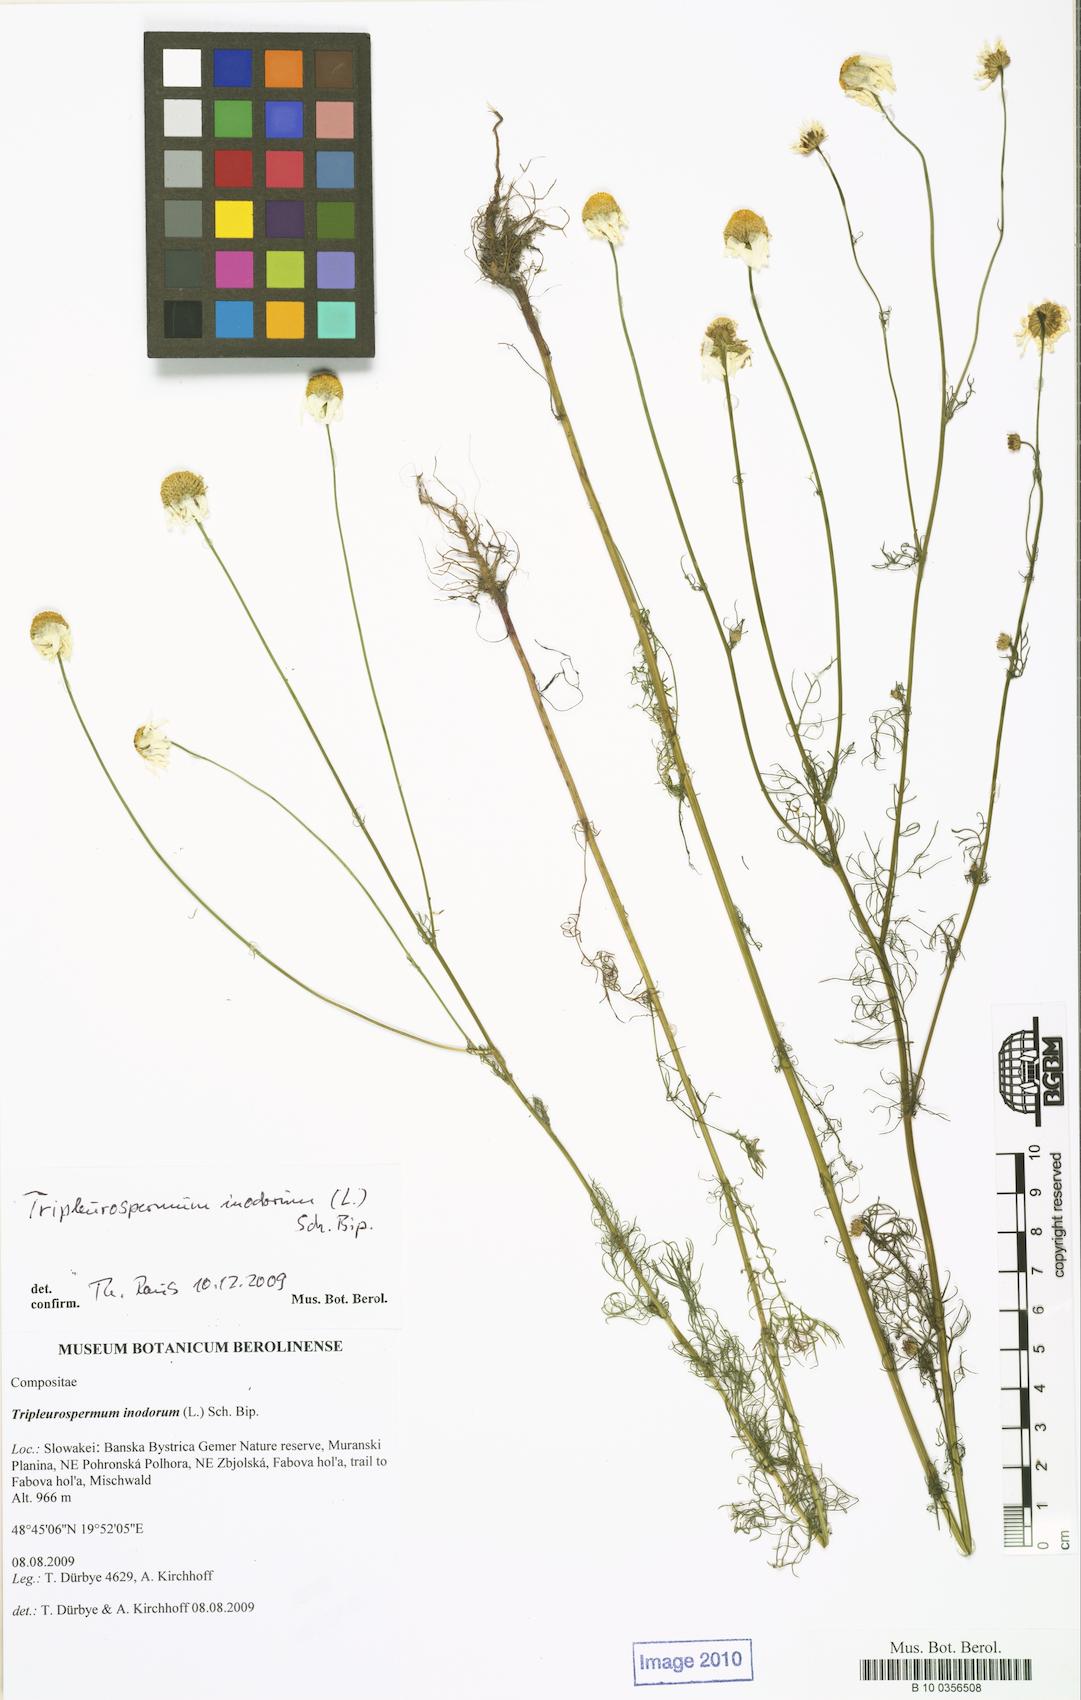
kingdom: Plantae
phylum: Tracheophyta
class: Magnoliopsida
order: Asterales
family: Asteraceae
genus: Tripleurospermum
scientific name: Tripleurospermum inodorum
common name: Scentless mayweed
